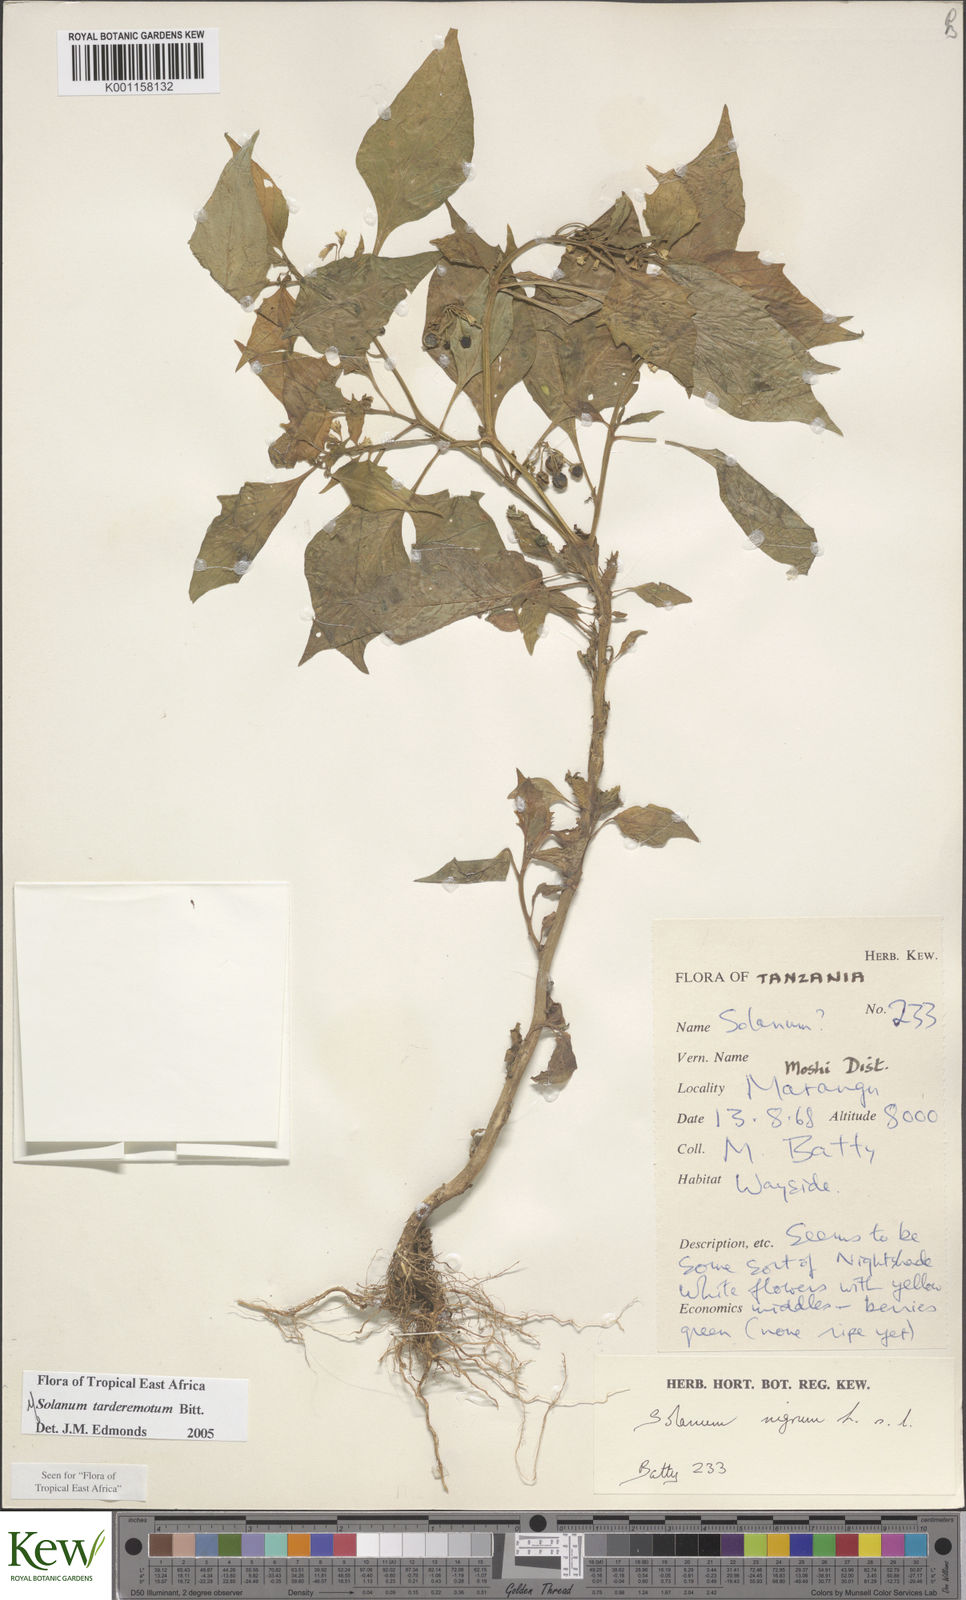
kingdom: Plantae
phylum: Tracheophyta
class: Magnoliopsida
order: Solanales
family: Solanaceae
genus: Solanum
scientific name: Solanum tarderemotum
